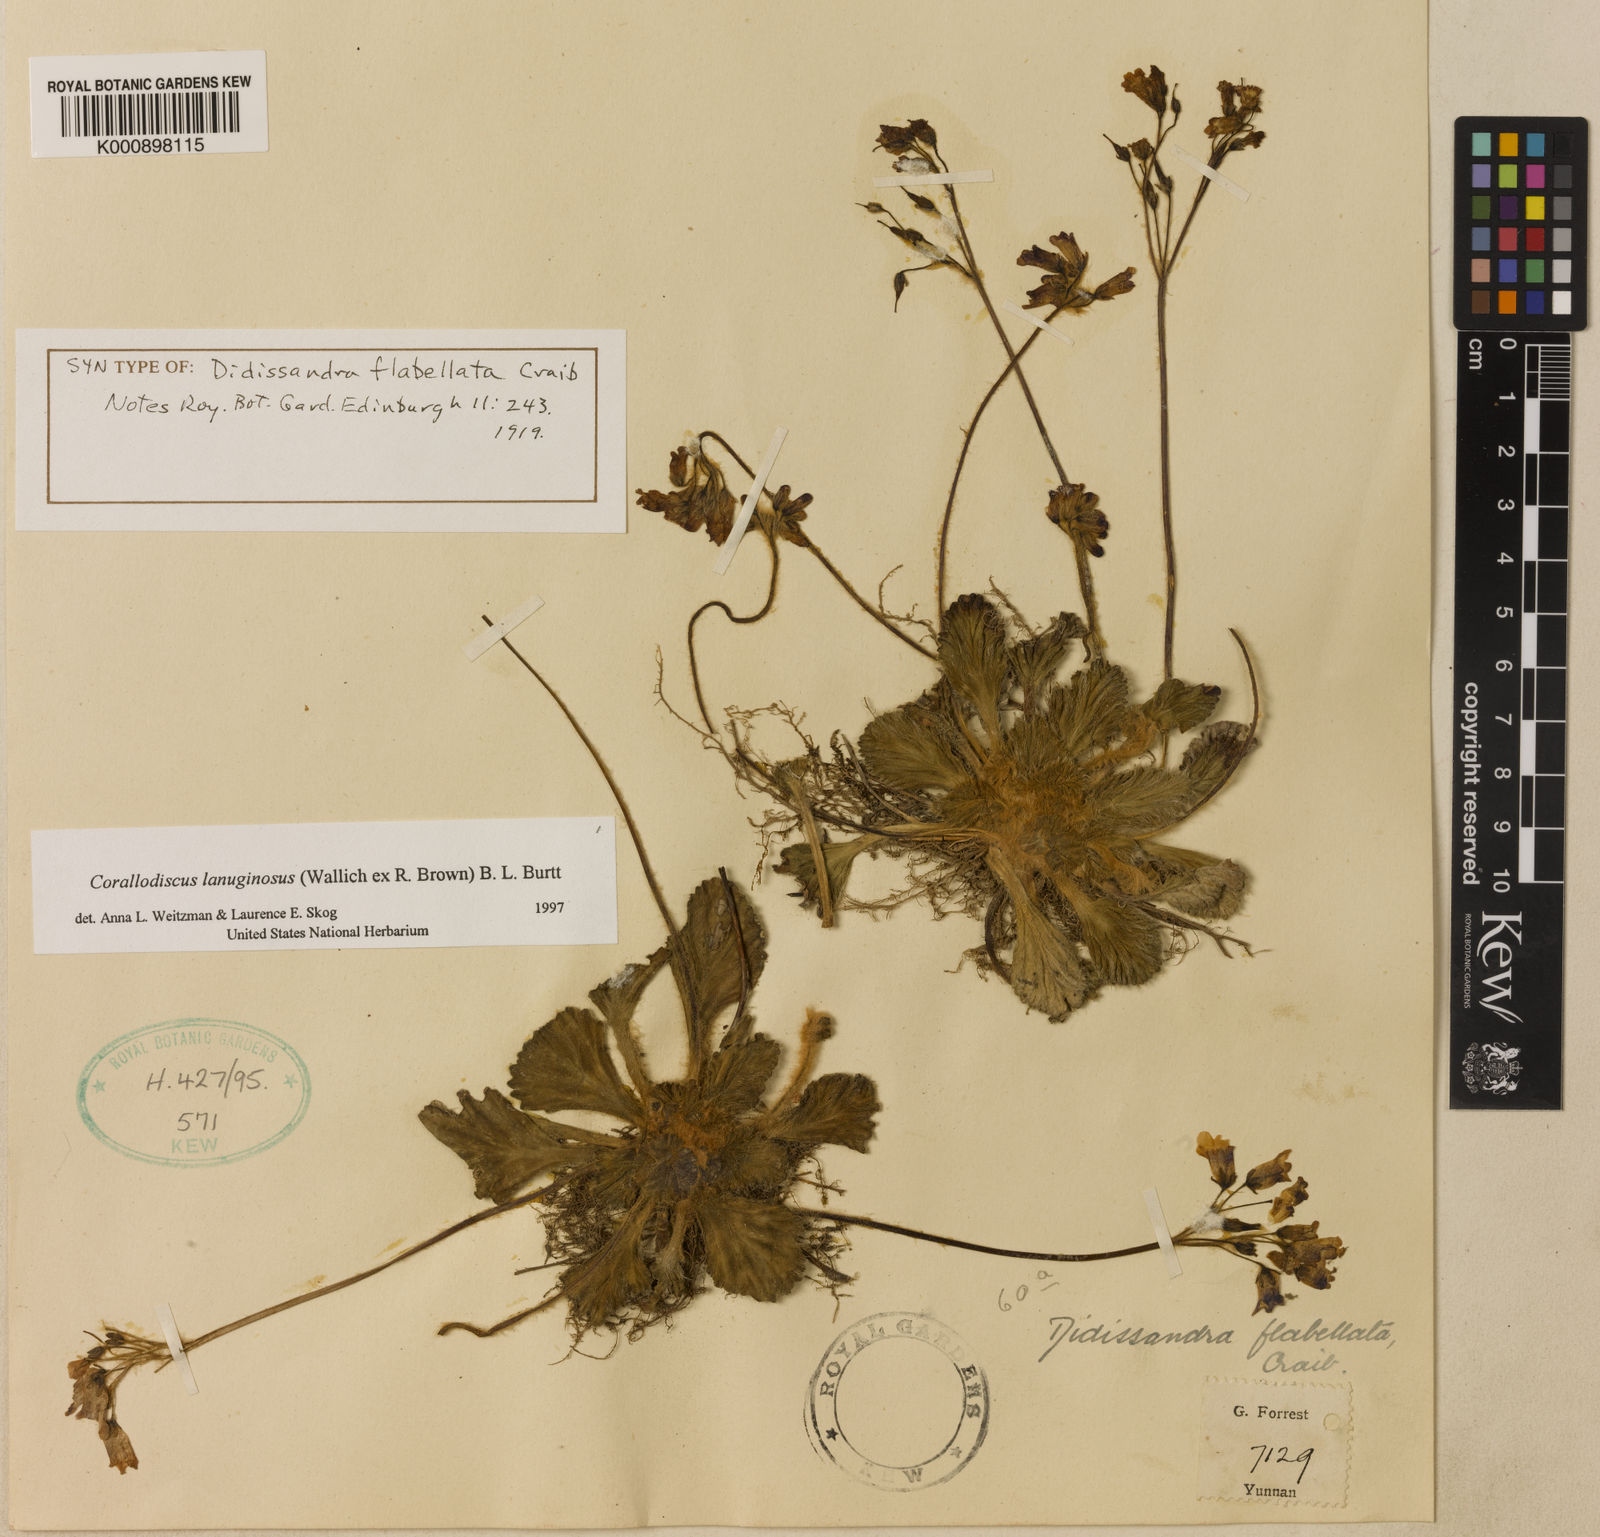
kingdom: Plantae
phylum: Tracheophyta
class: Magnoliopsida
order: Lamiales
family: Gesneriaceae
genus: Corallodiscus
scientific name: Corallodiscus lanuginosus
